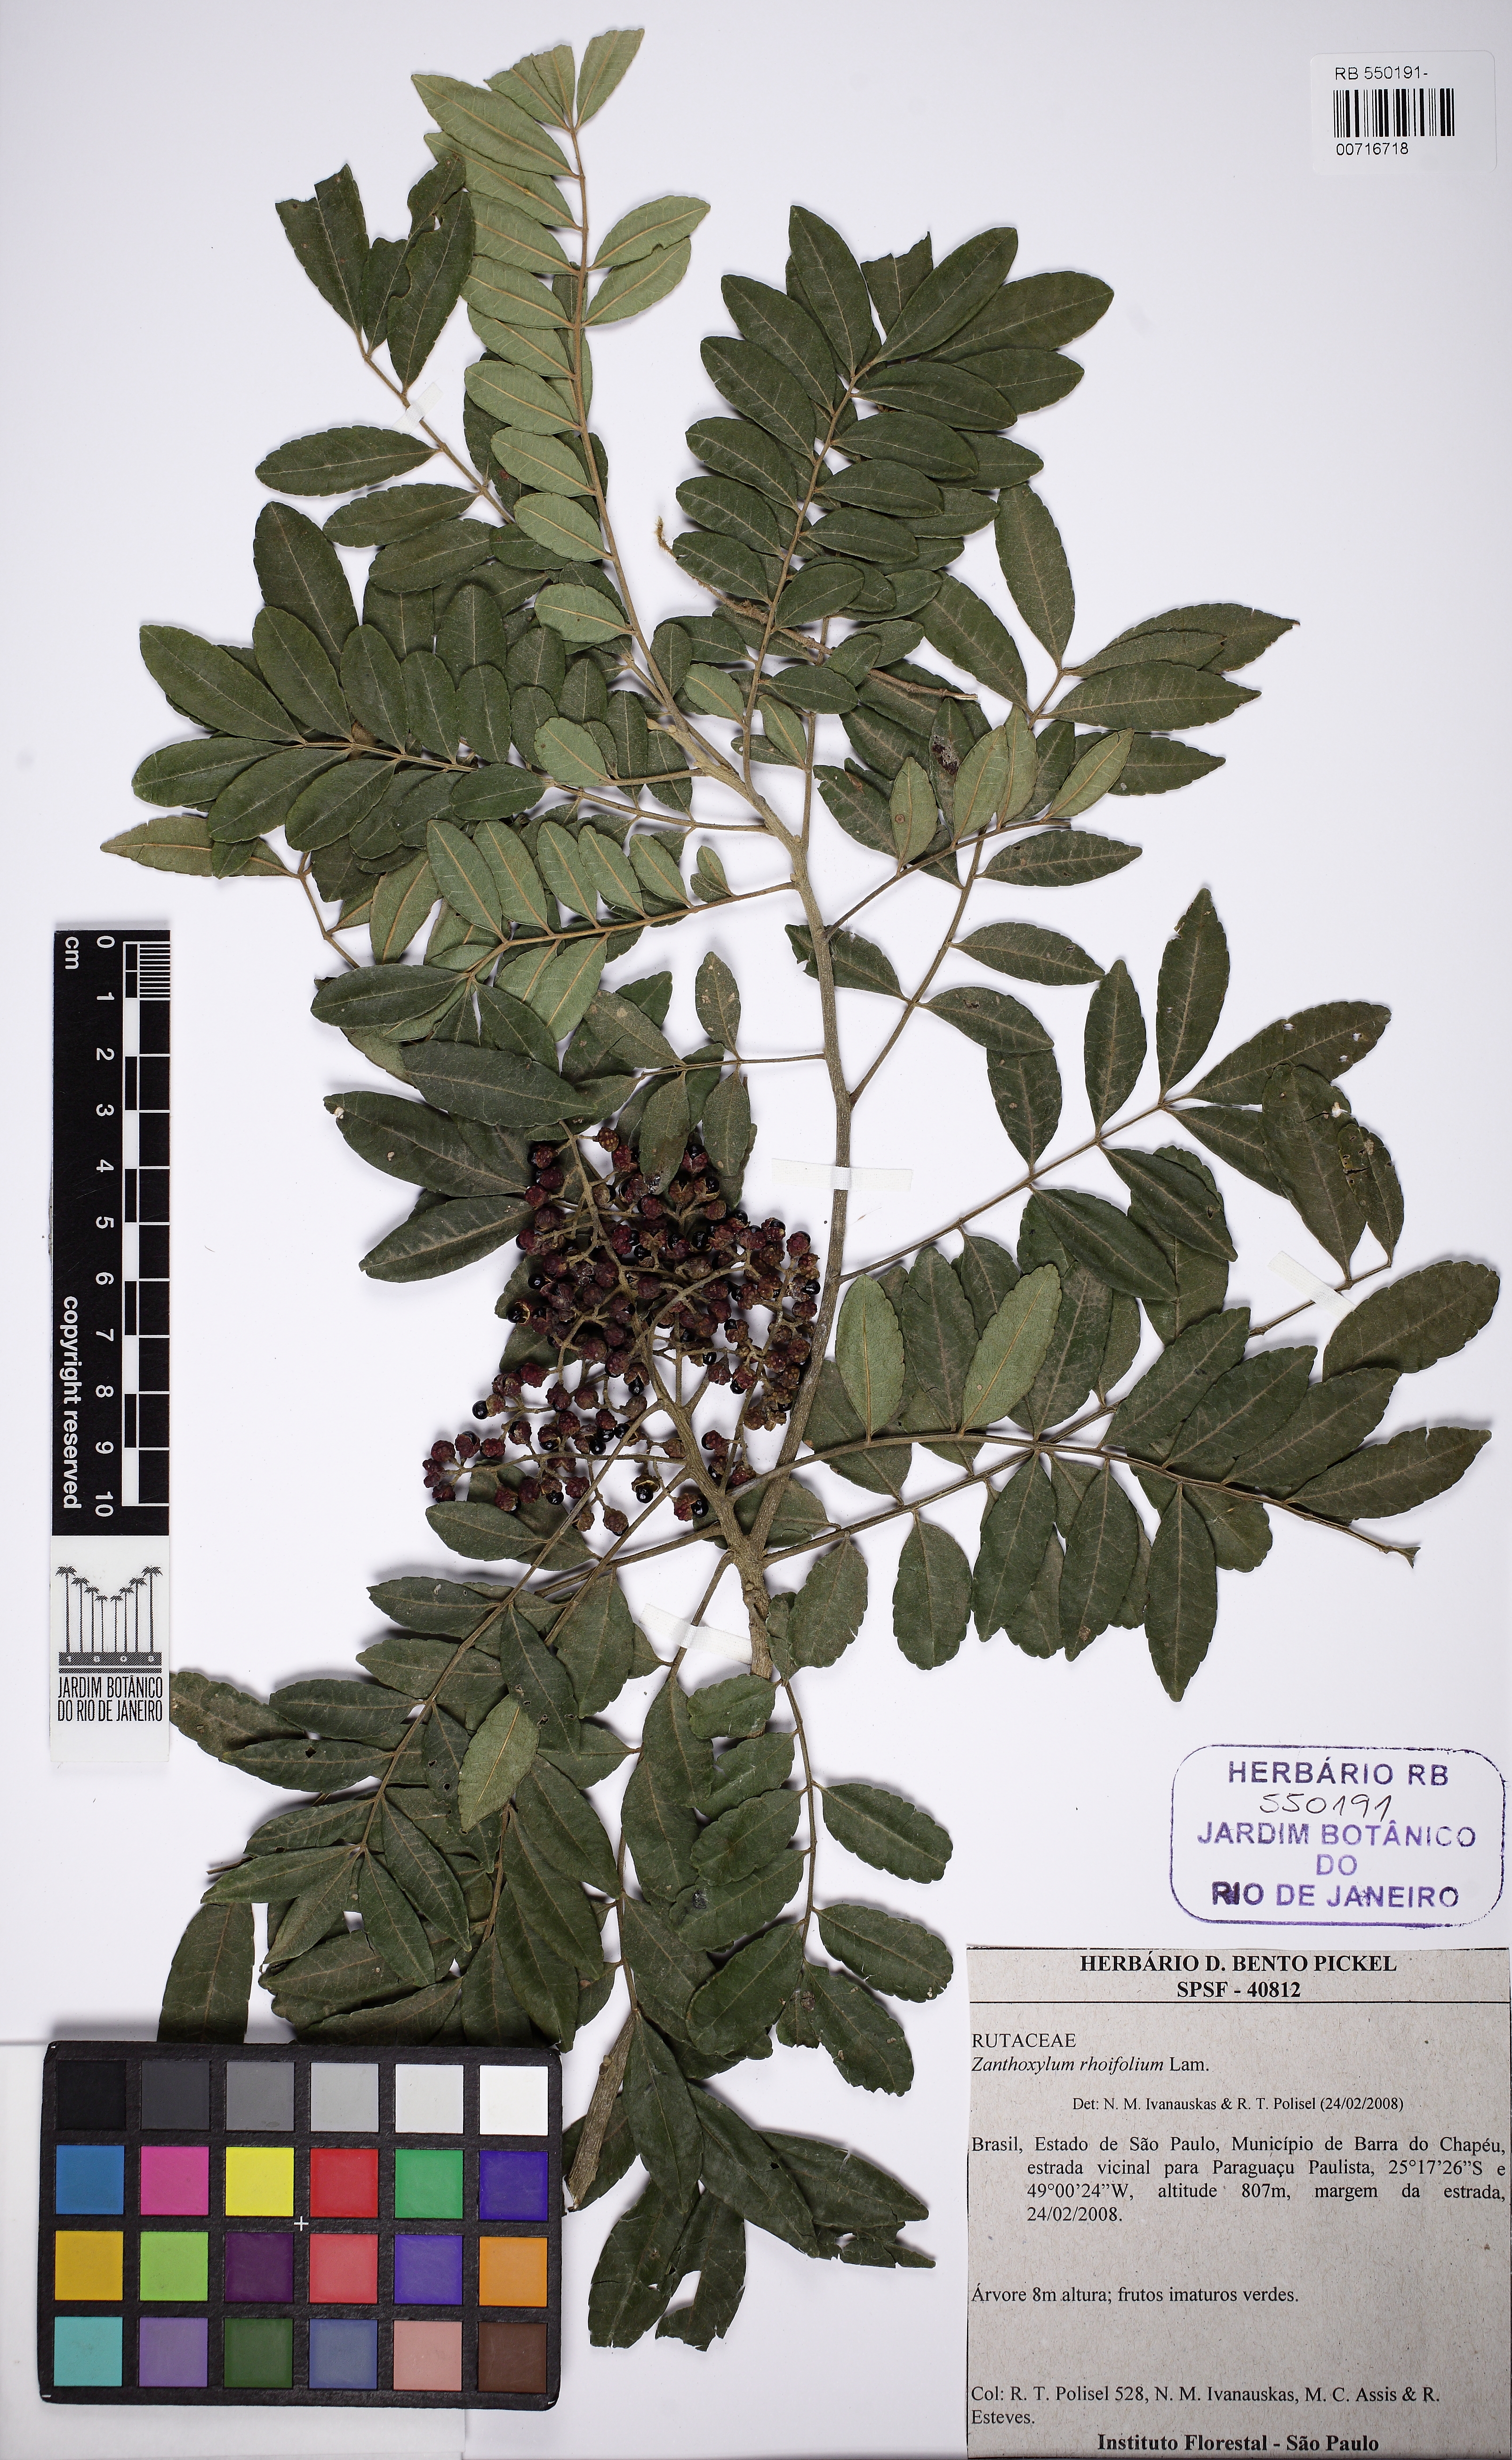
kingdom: Plantae
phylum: Tracheophyta
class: Magnoliopsida
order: Sapindales
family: Rutaceae
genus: Zanthoxylum
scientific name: Zanthoxylum rhoifolium
